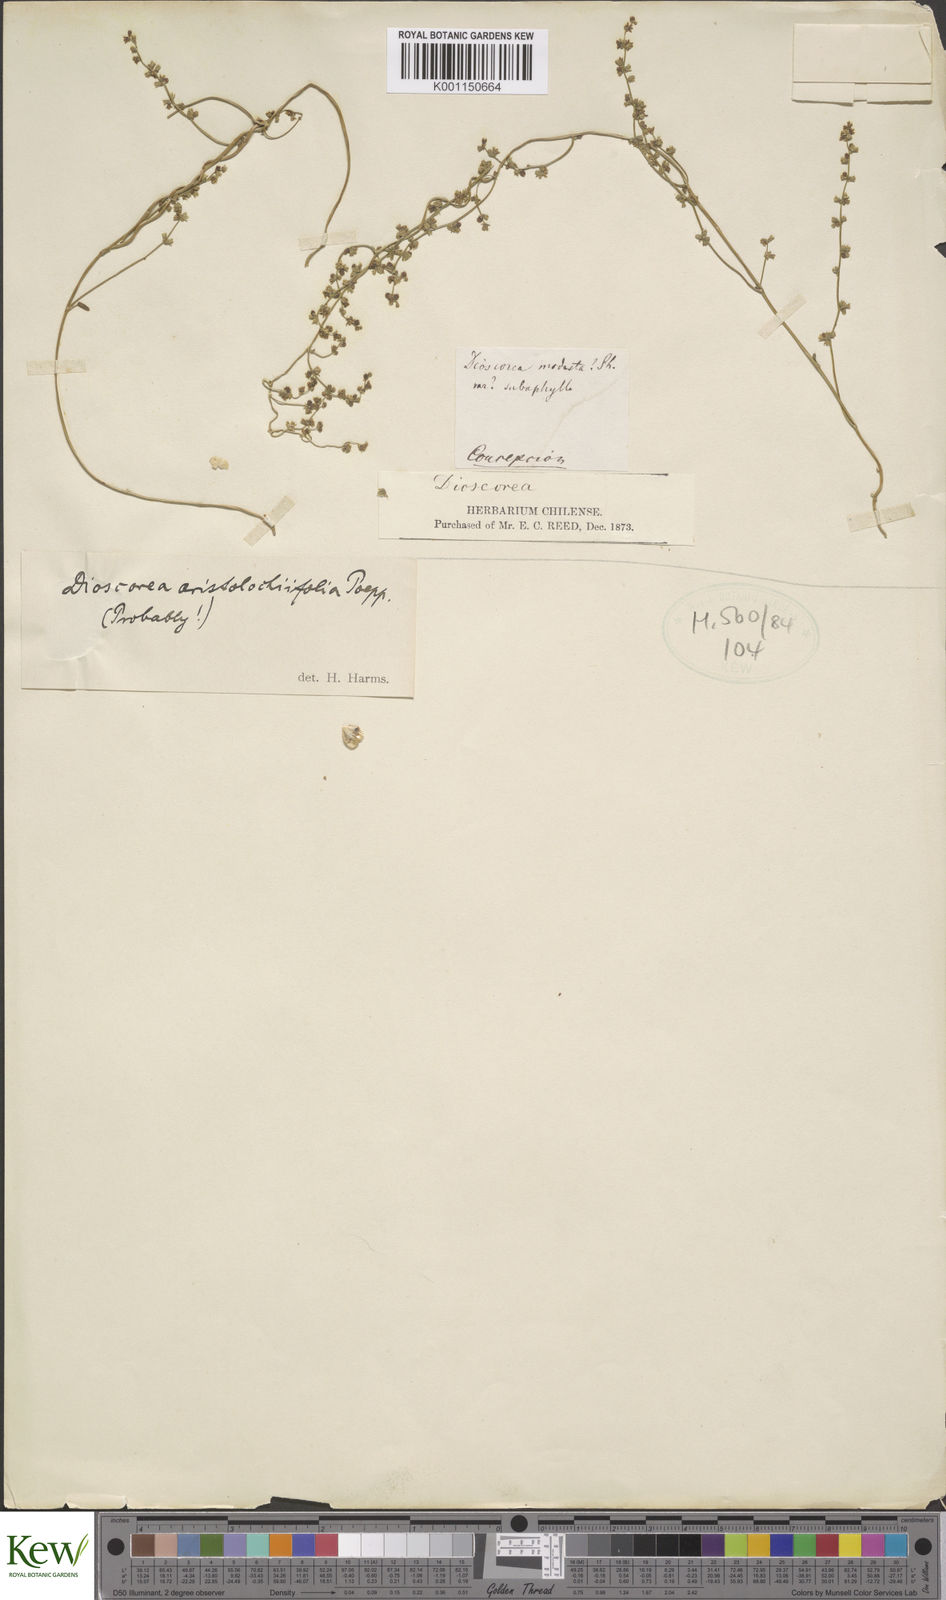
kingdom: Plantae
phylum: Tracheophyta
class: Liliopsida
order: Dioscoreales
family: Dioscoreaceae
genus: Dioscorea
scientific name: Dioscorea aristolochiifolia
